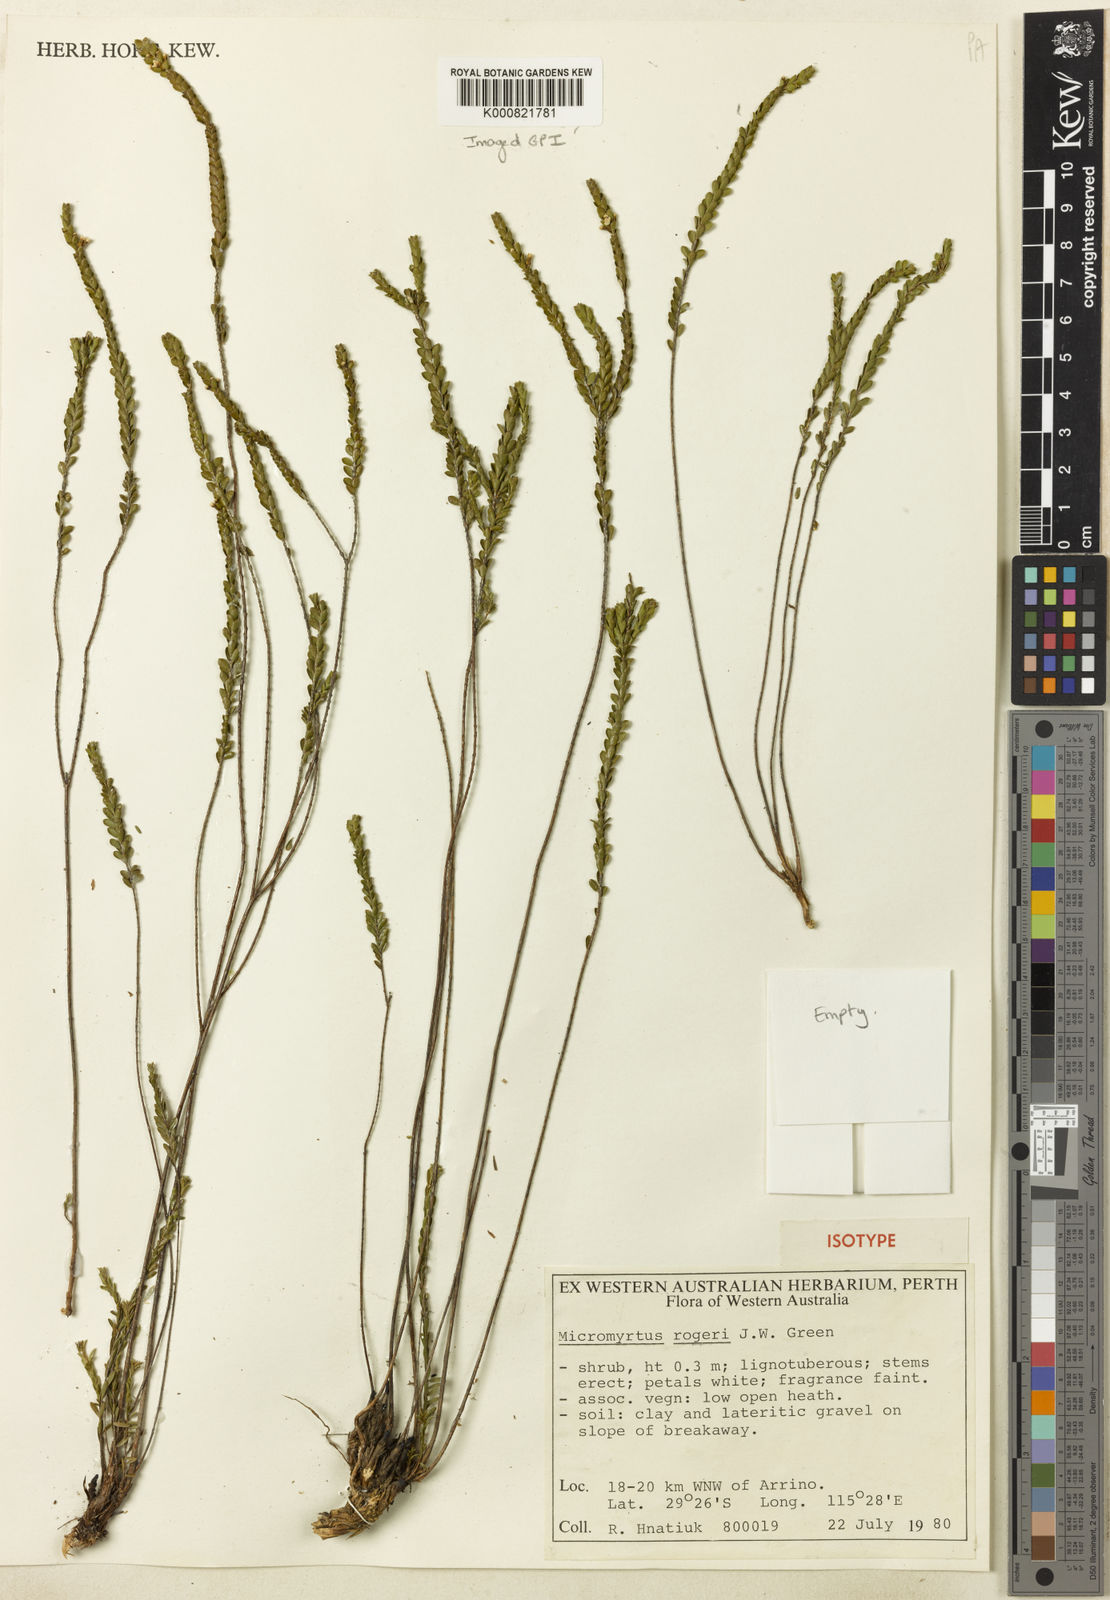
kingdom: Plantae
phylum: Tracheophyta
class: Magnoliopsida
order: Myrtales
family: Myrtaceae
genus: Micromyrtus
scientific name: Micromyrtus rogeri
